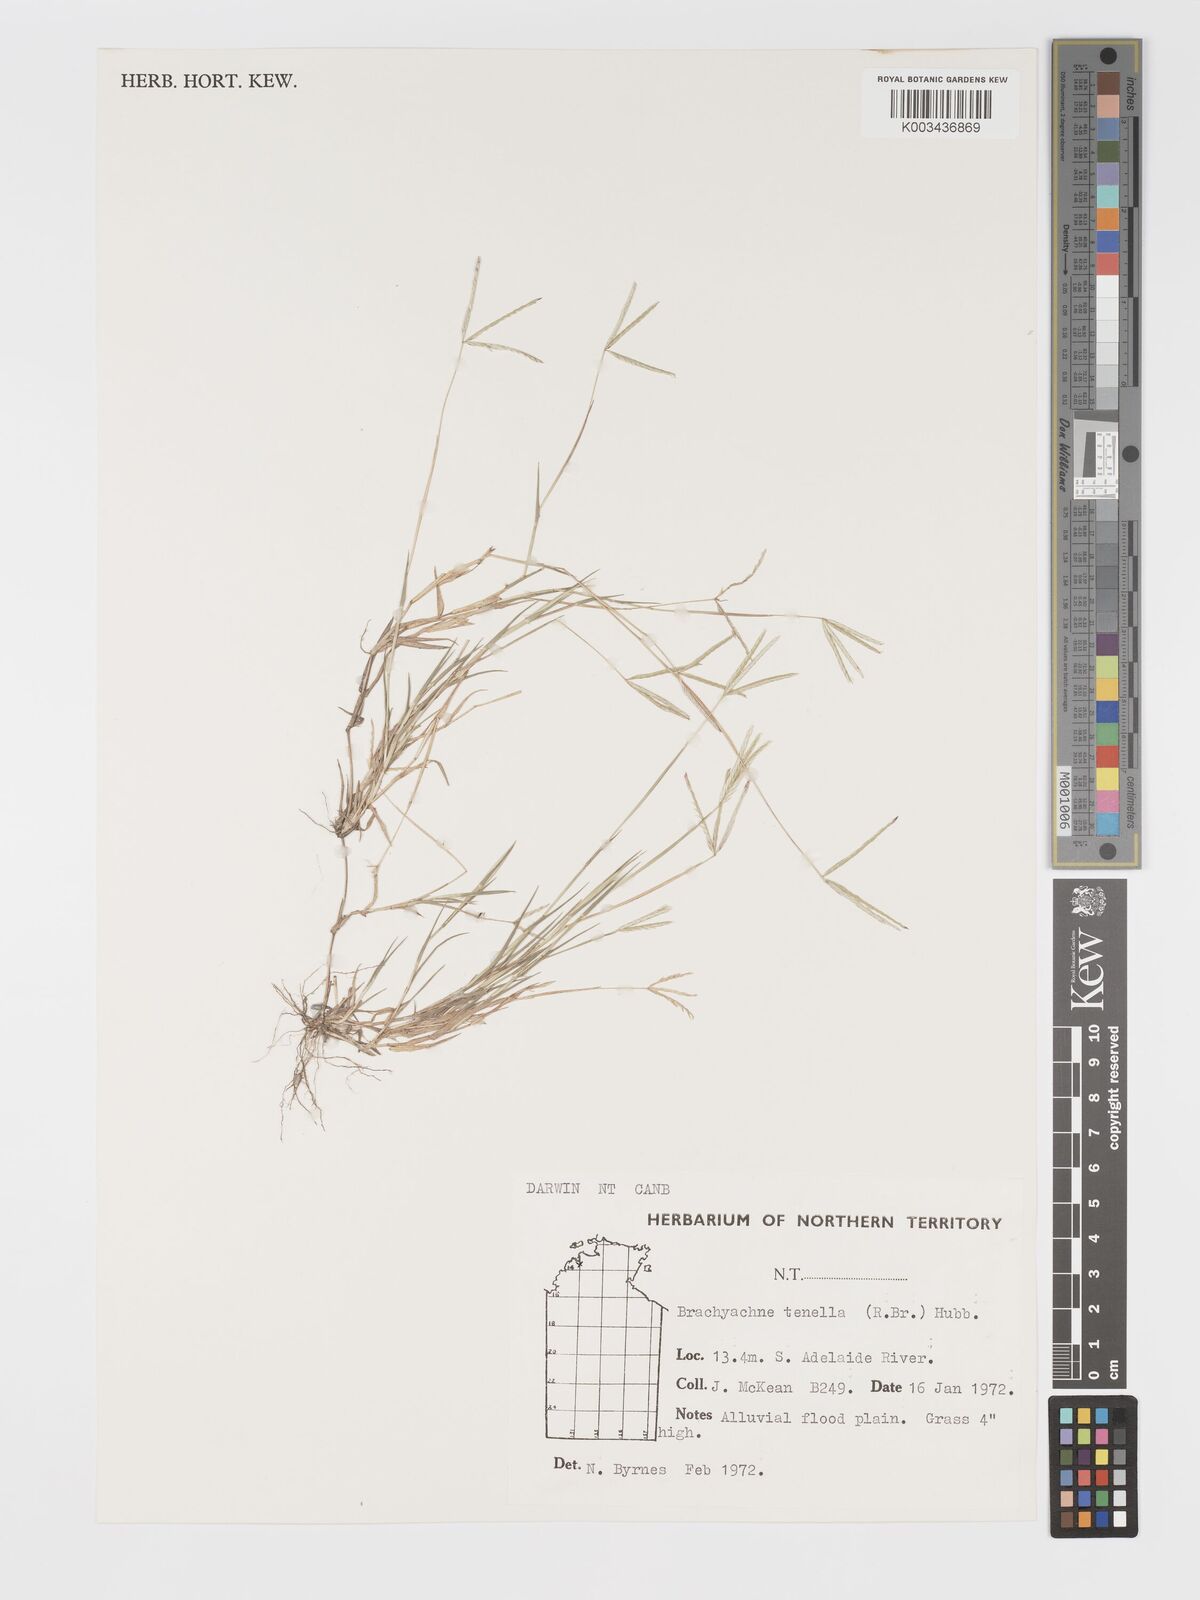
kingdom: Plantae
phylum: Tracheophyta
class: Liliopsida
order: Poales
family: Poaceae
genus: Cynodon
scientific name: Cynodon tenellus
